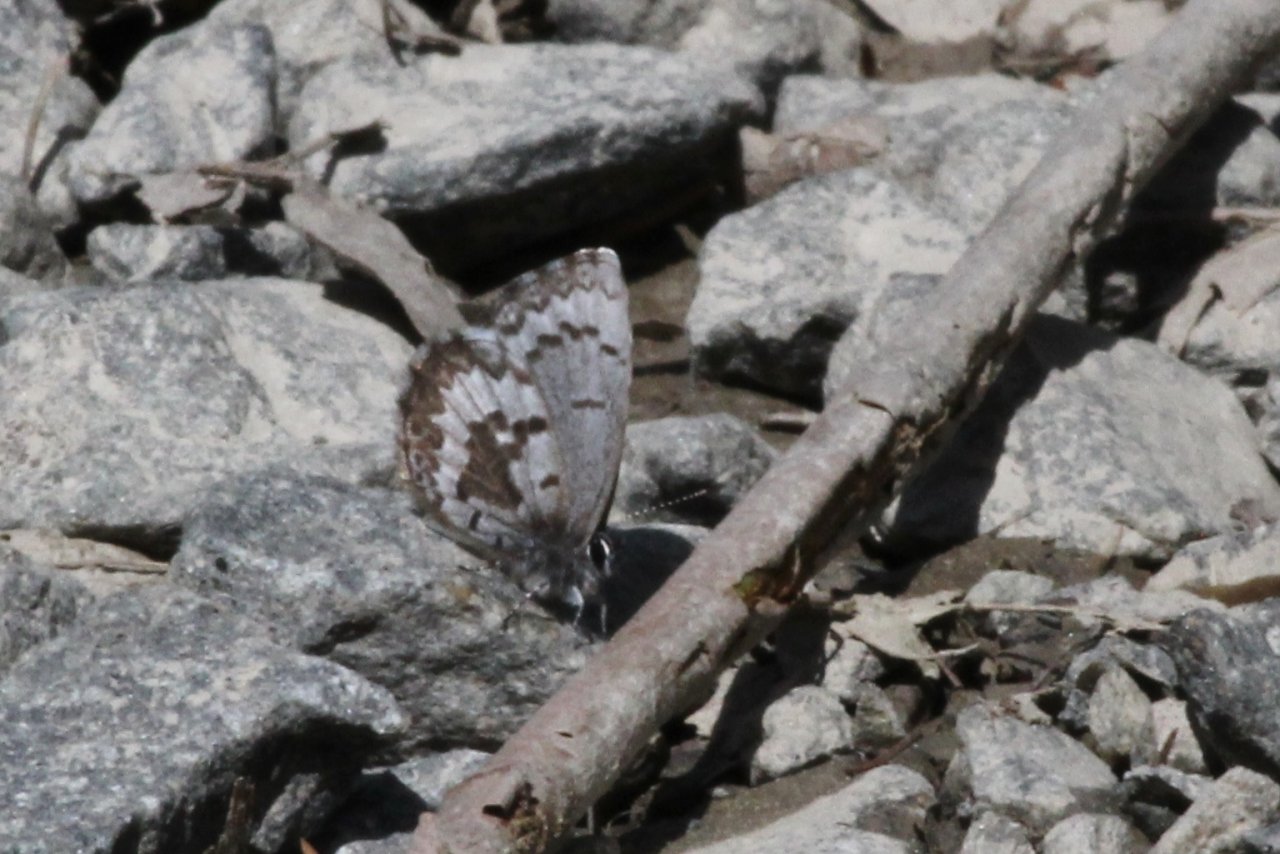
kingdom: Animalia
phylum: Arthropoda
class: Insecta
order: Lepidoptera
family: Lycaenidae
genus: Celastrina
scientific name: Celastrina lucia
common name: Northern Spring Azure
